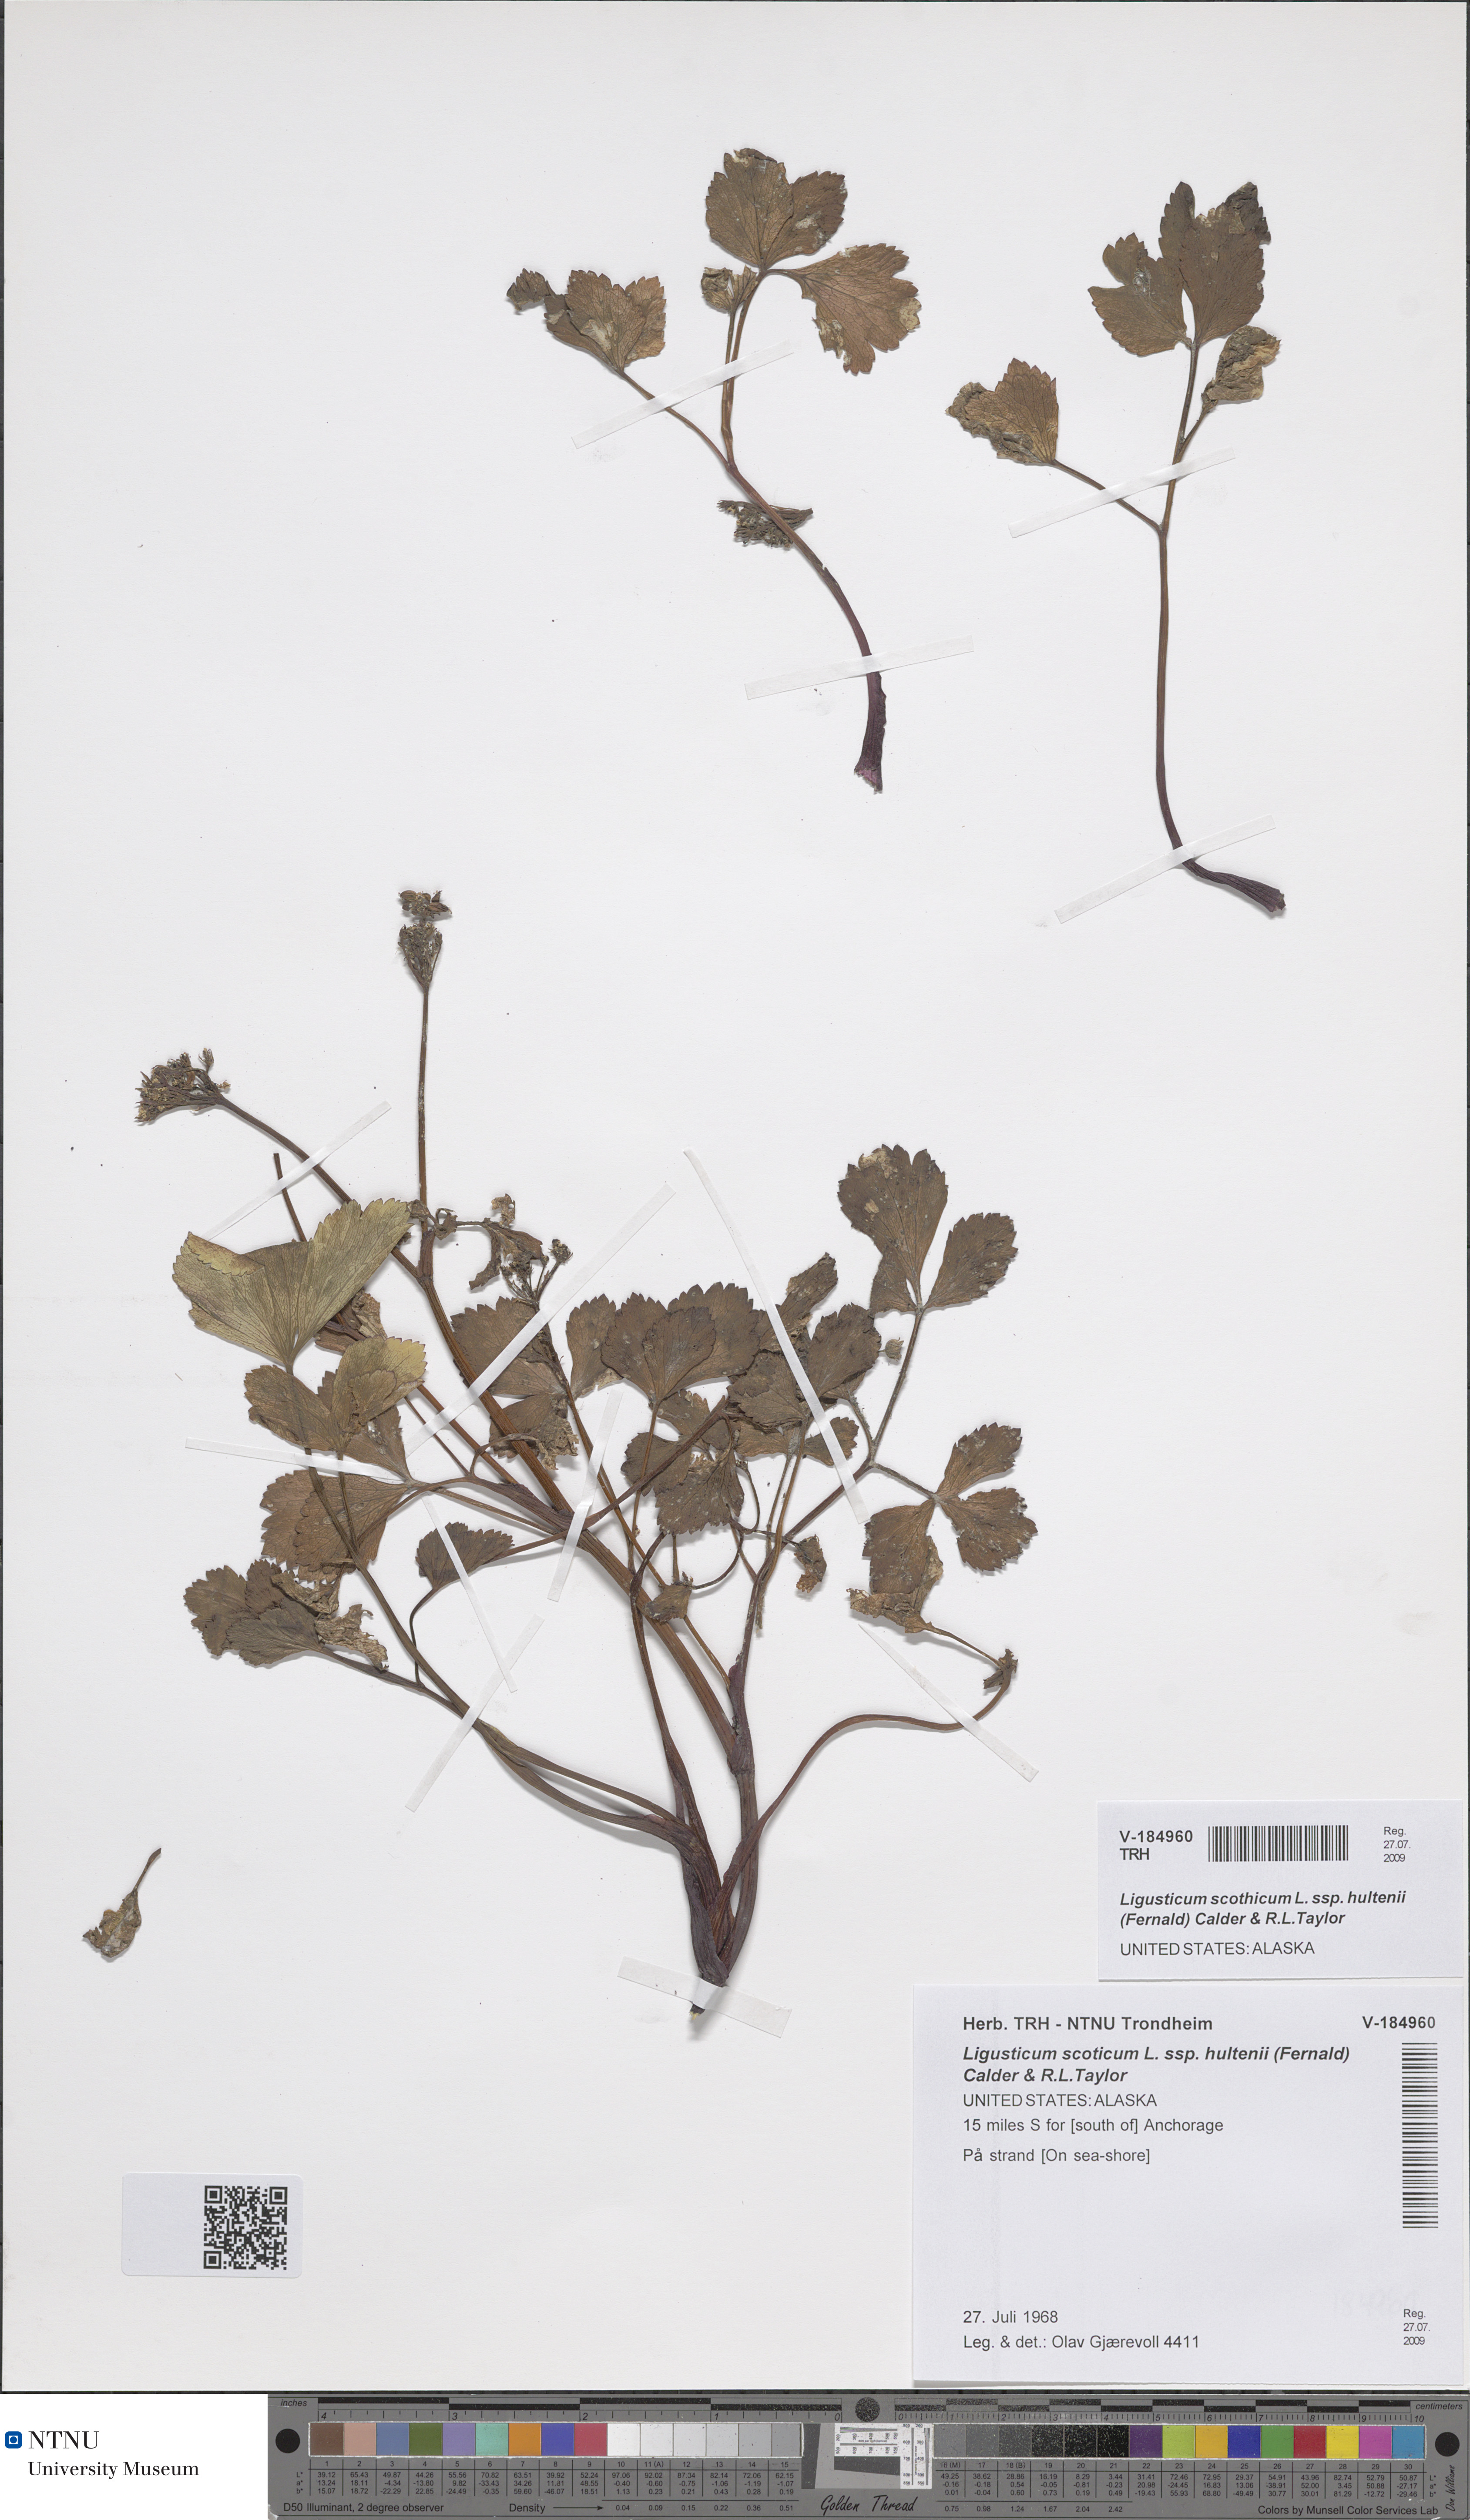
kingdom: Plantae
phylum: Tracheophyta
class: Magnoliopsida
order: Apiales
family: Apiaceae
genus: Ligusticum
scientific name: Ligusticum scothicum
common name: Beach lovage
